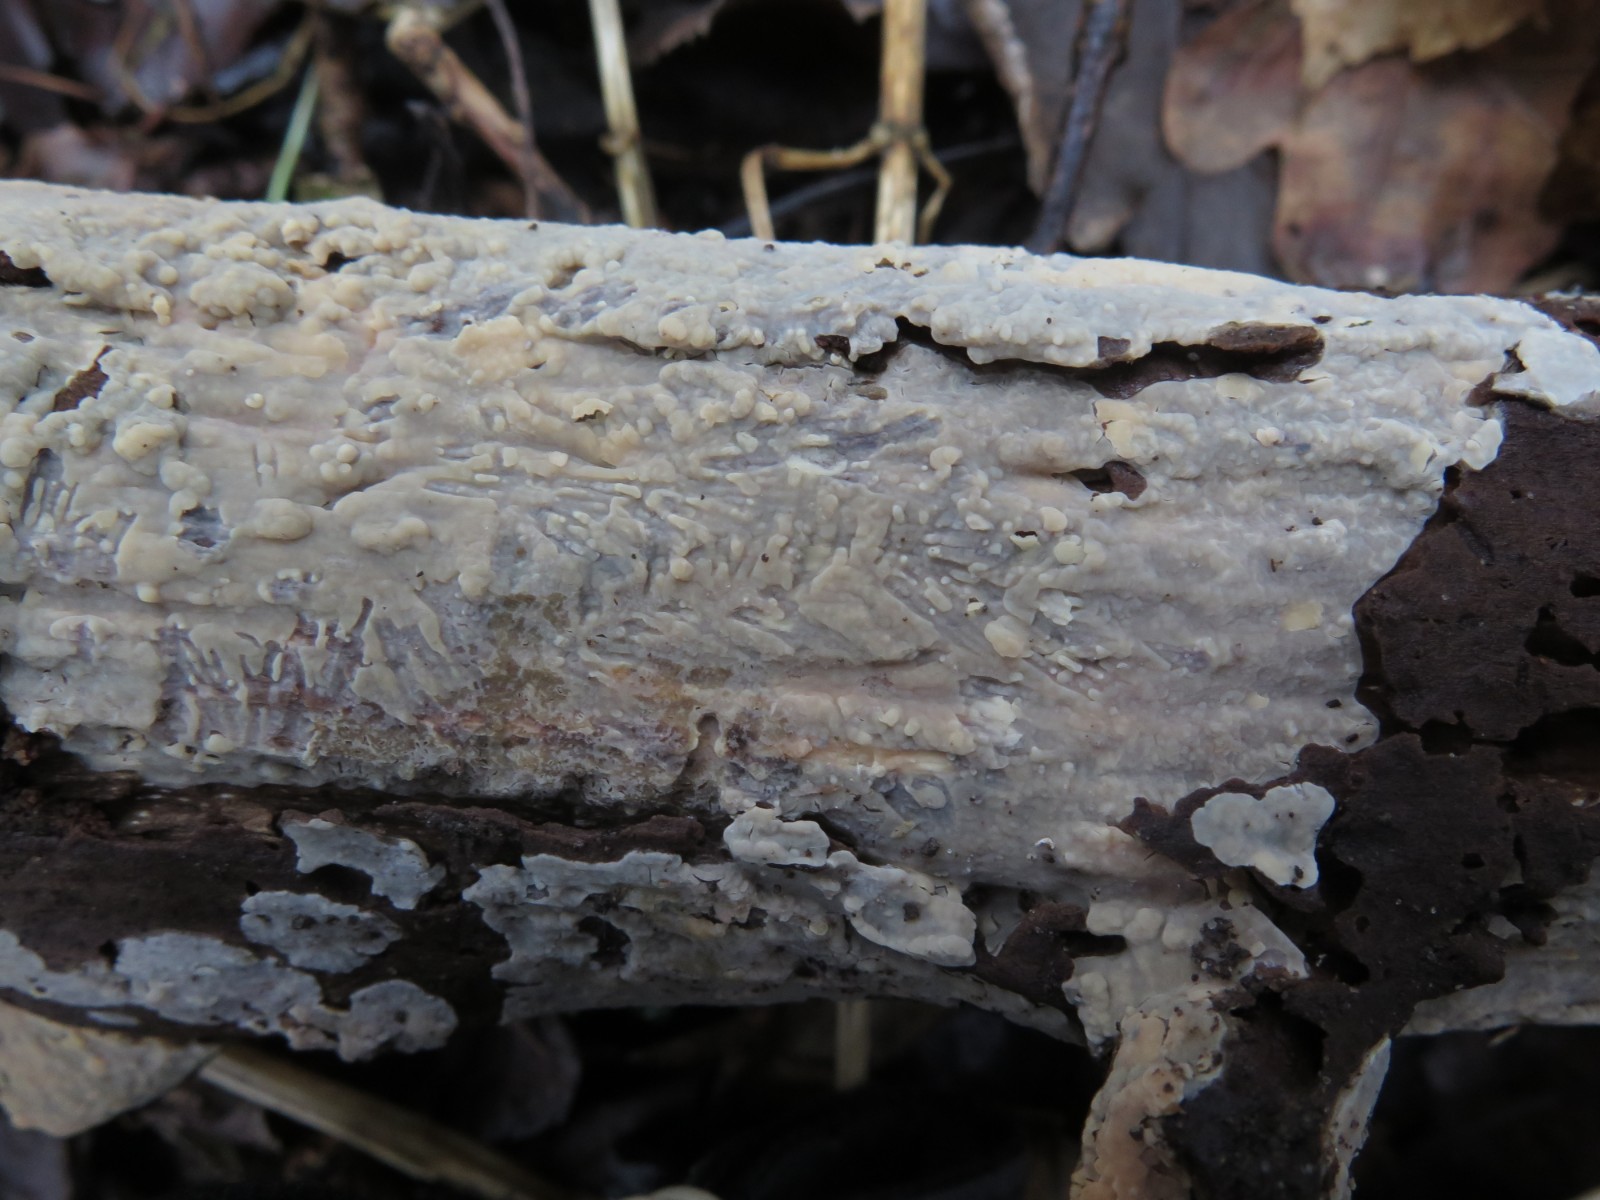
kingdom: Fungi
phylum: Basidiomycota
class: Agaricomycetes
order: Russulales
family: Peniophoraceae
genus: Scytinostroma
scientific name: Scytinostroma hemidichophyticum
